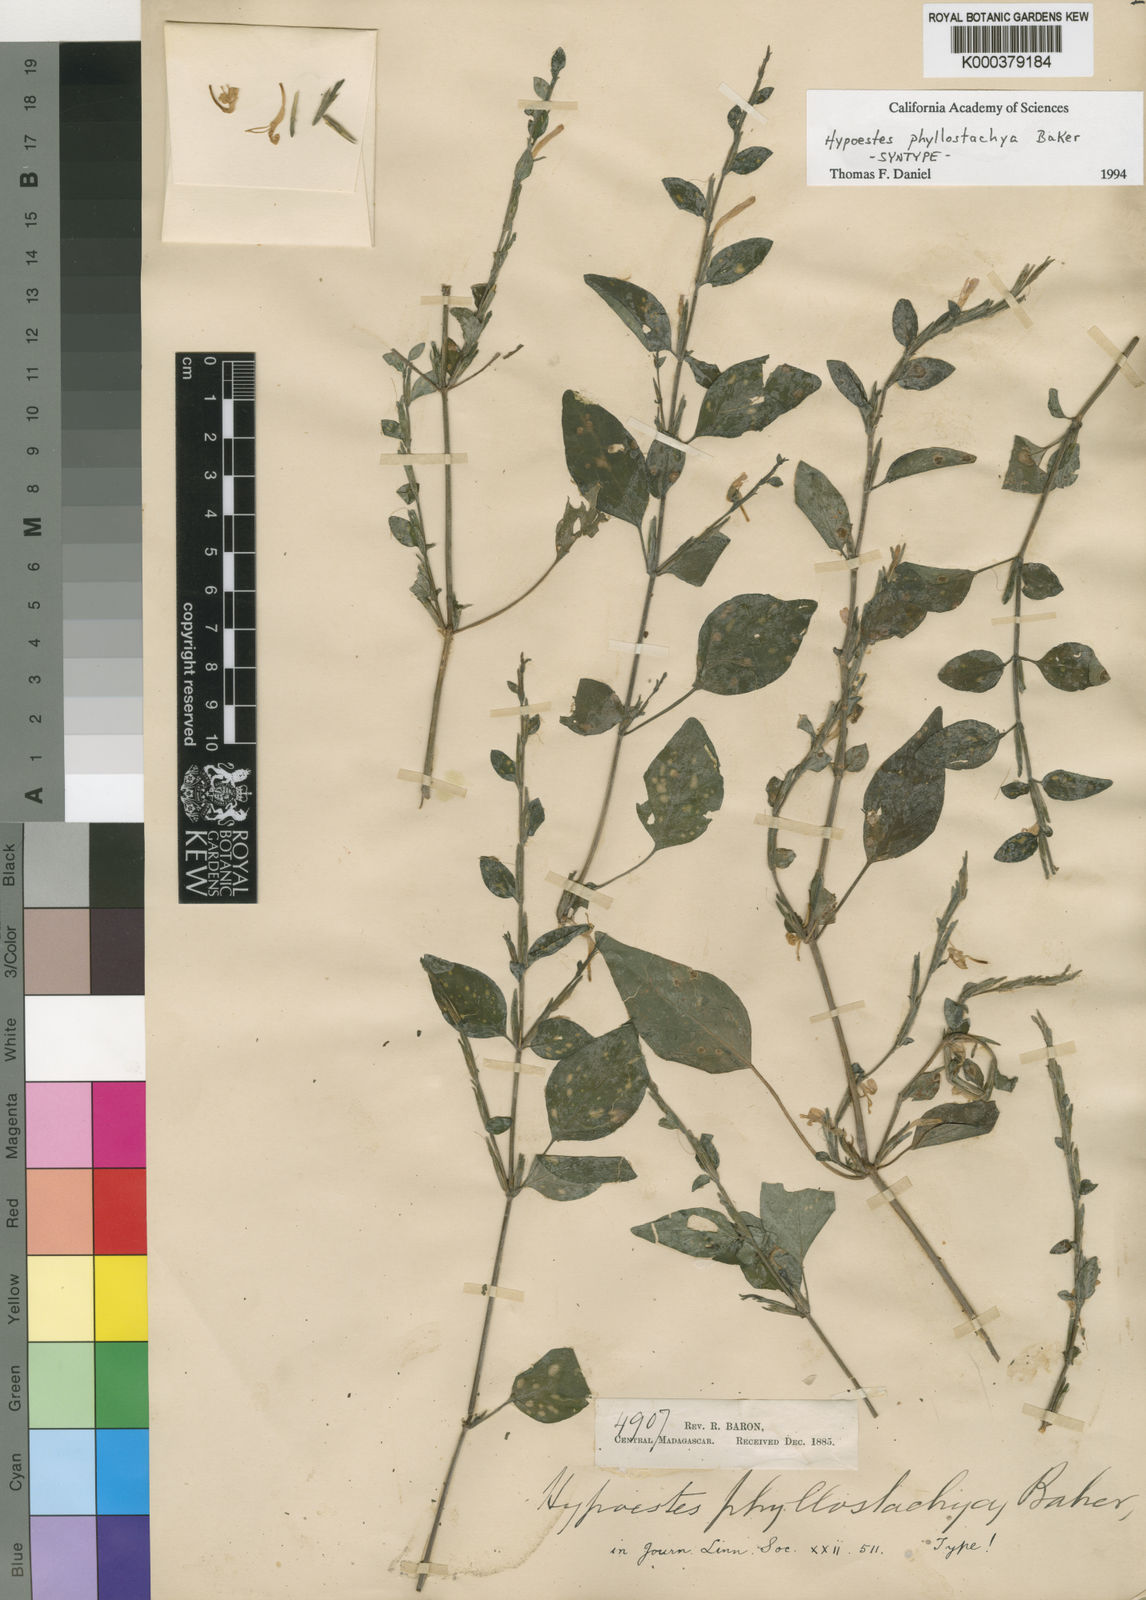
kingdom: Plantae
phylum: Tracheophyta
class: Magnoliopsida
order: Lamiales
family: Acanthaceae
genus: Hypoestes
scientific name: Hypoestes phyllostachya
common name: Polkadot-plant
